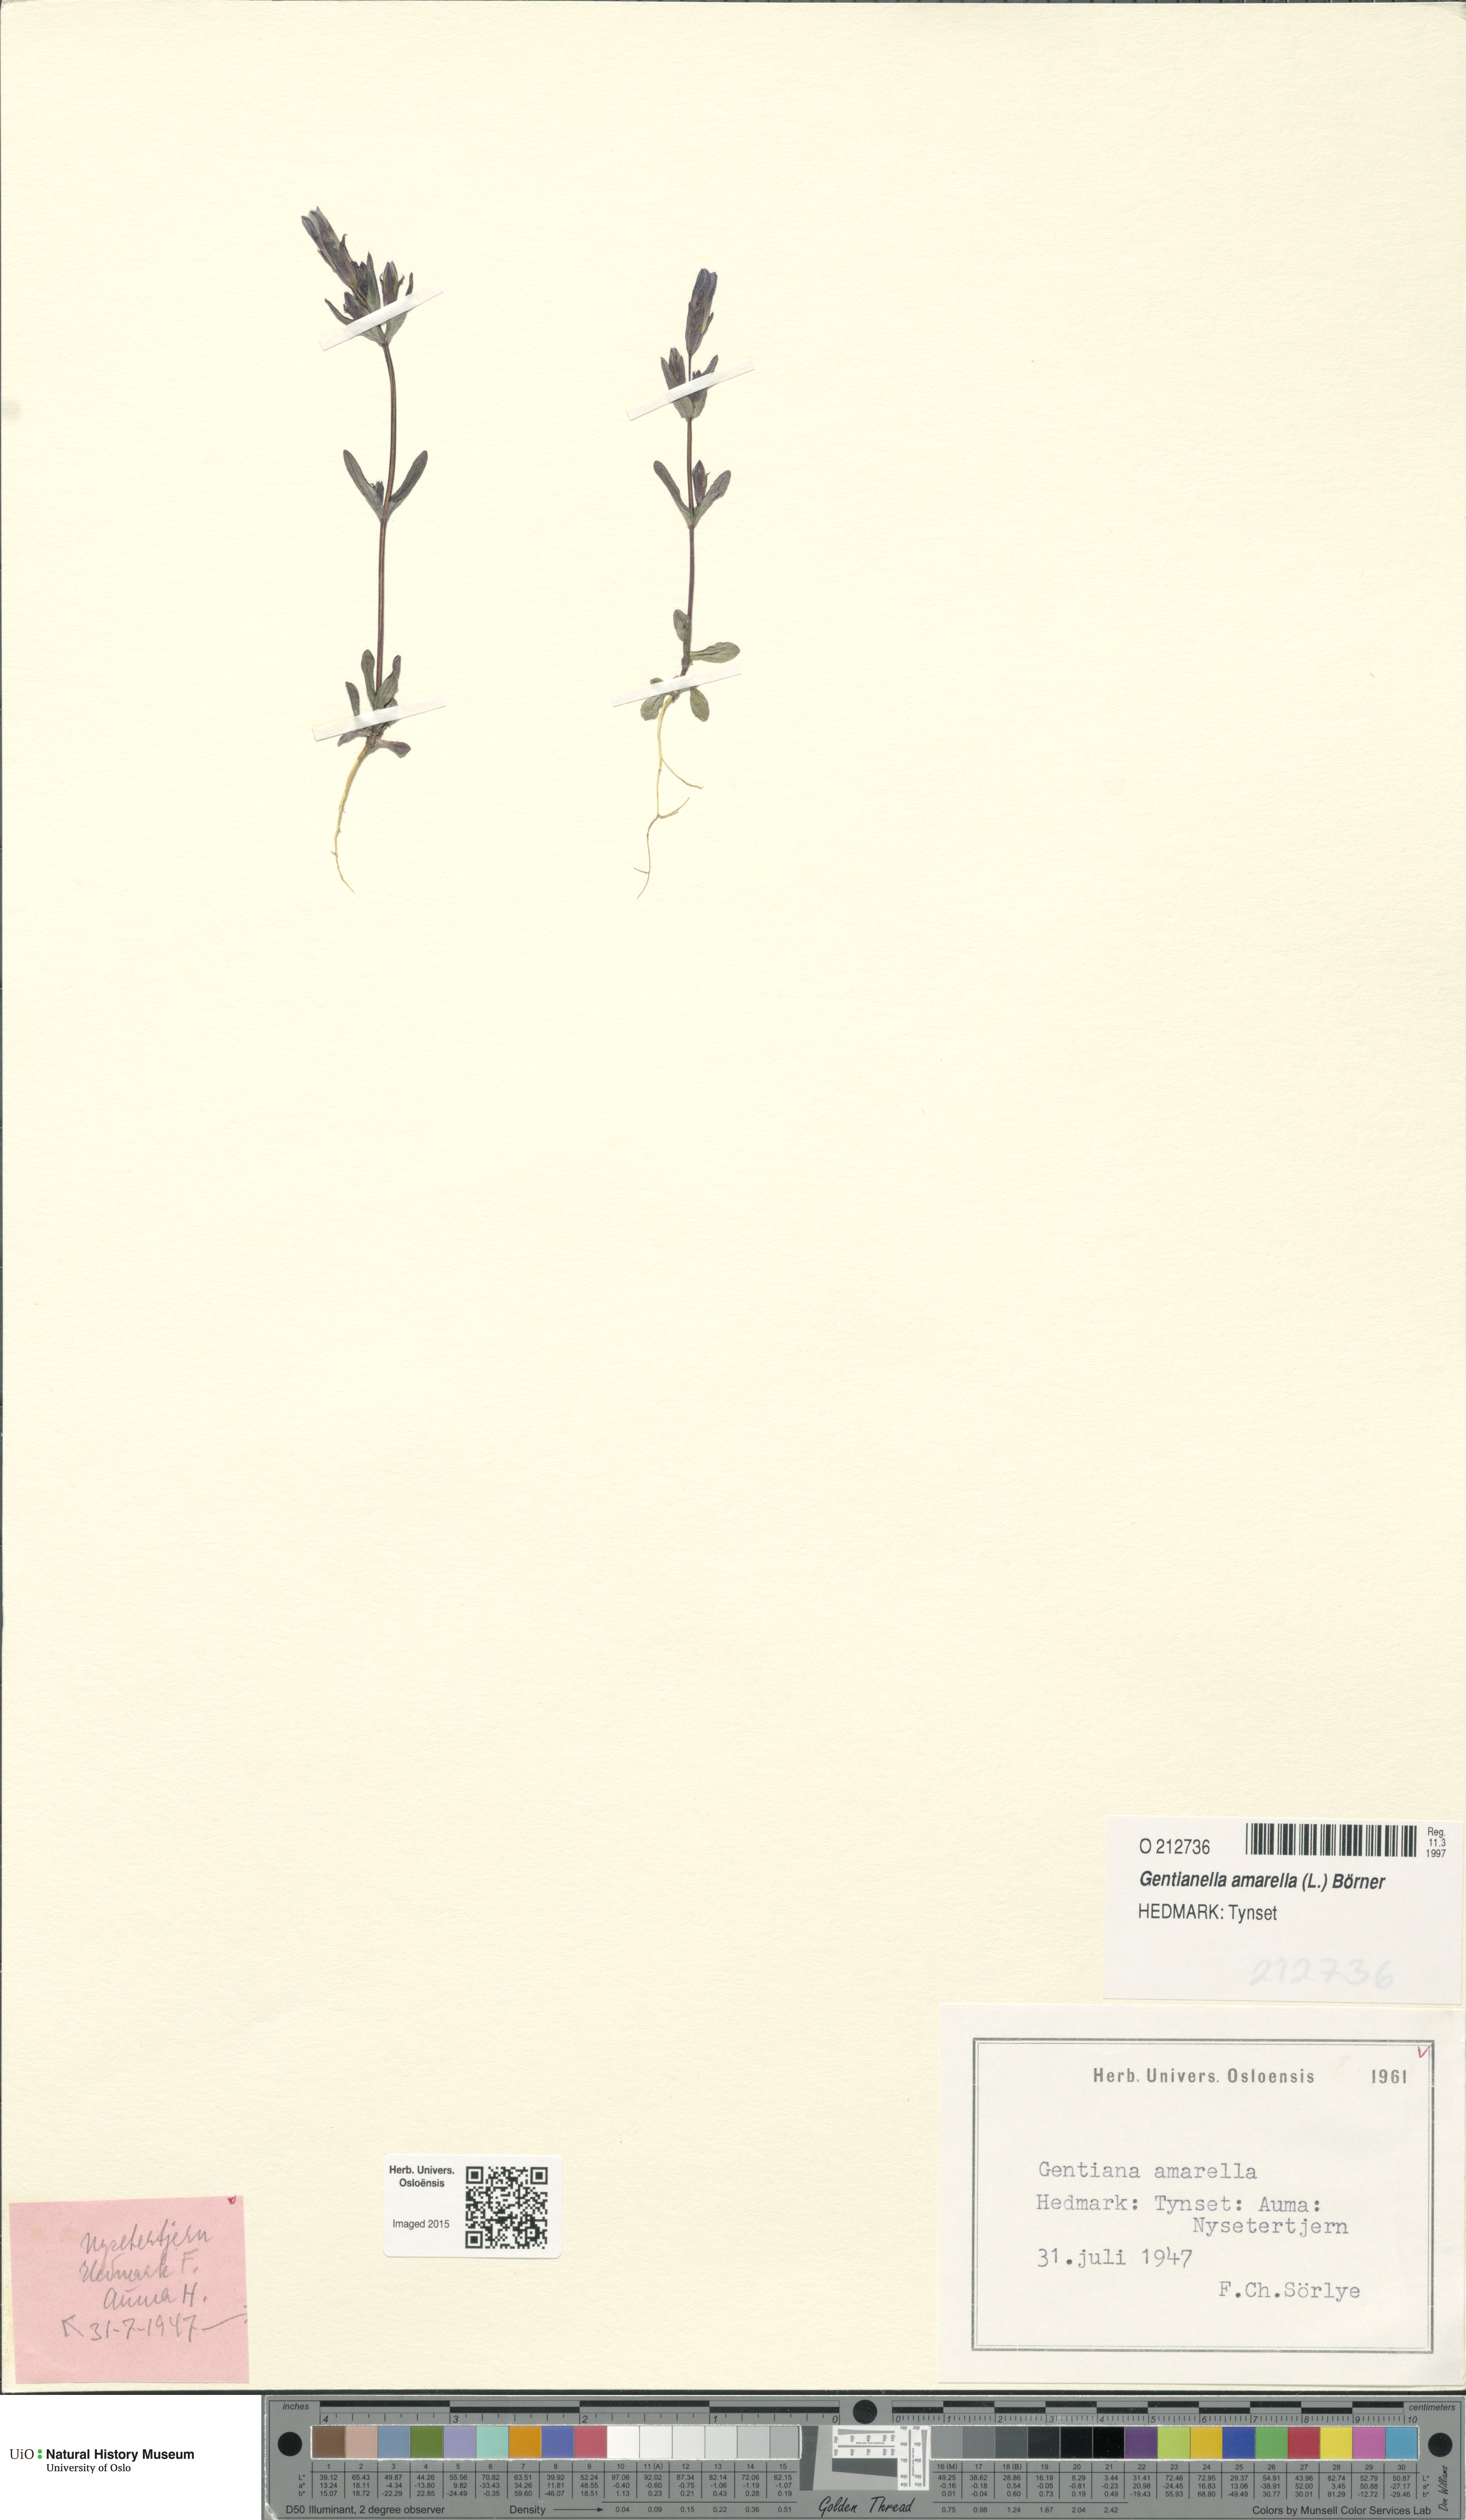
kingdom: Plantae
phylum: Tracheophyta
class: Magnoliopsida
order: Gentianales
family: Gentianaceae
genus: Gentianella
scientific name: Gentianella amarella
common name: Autumn gentian
